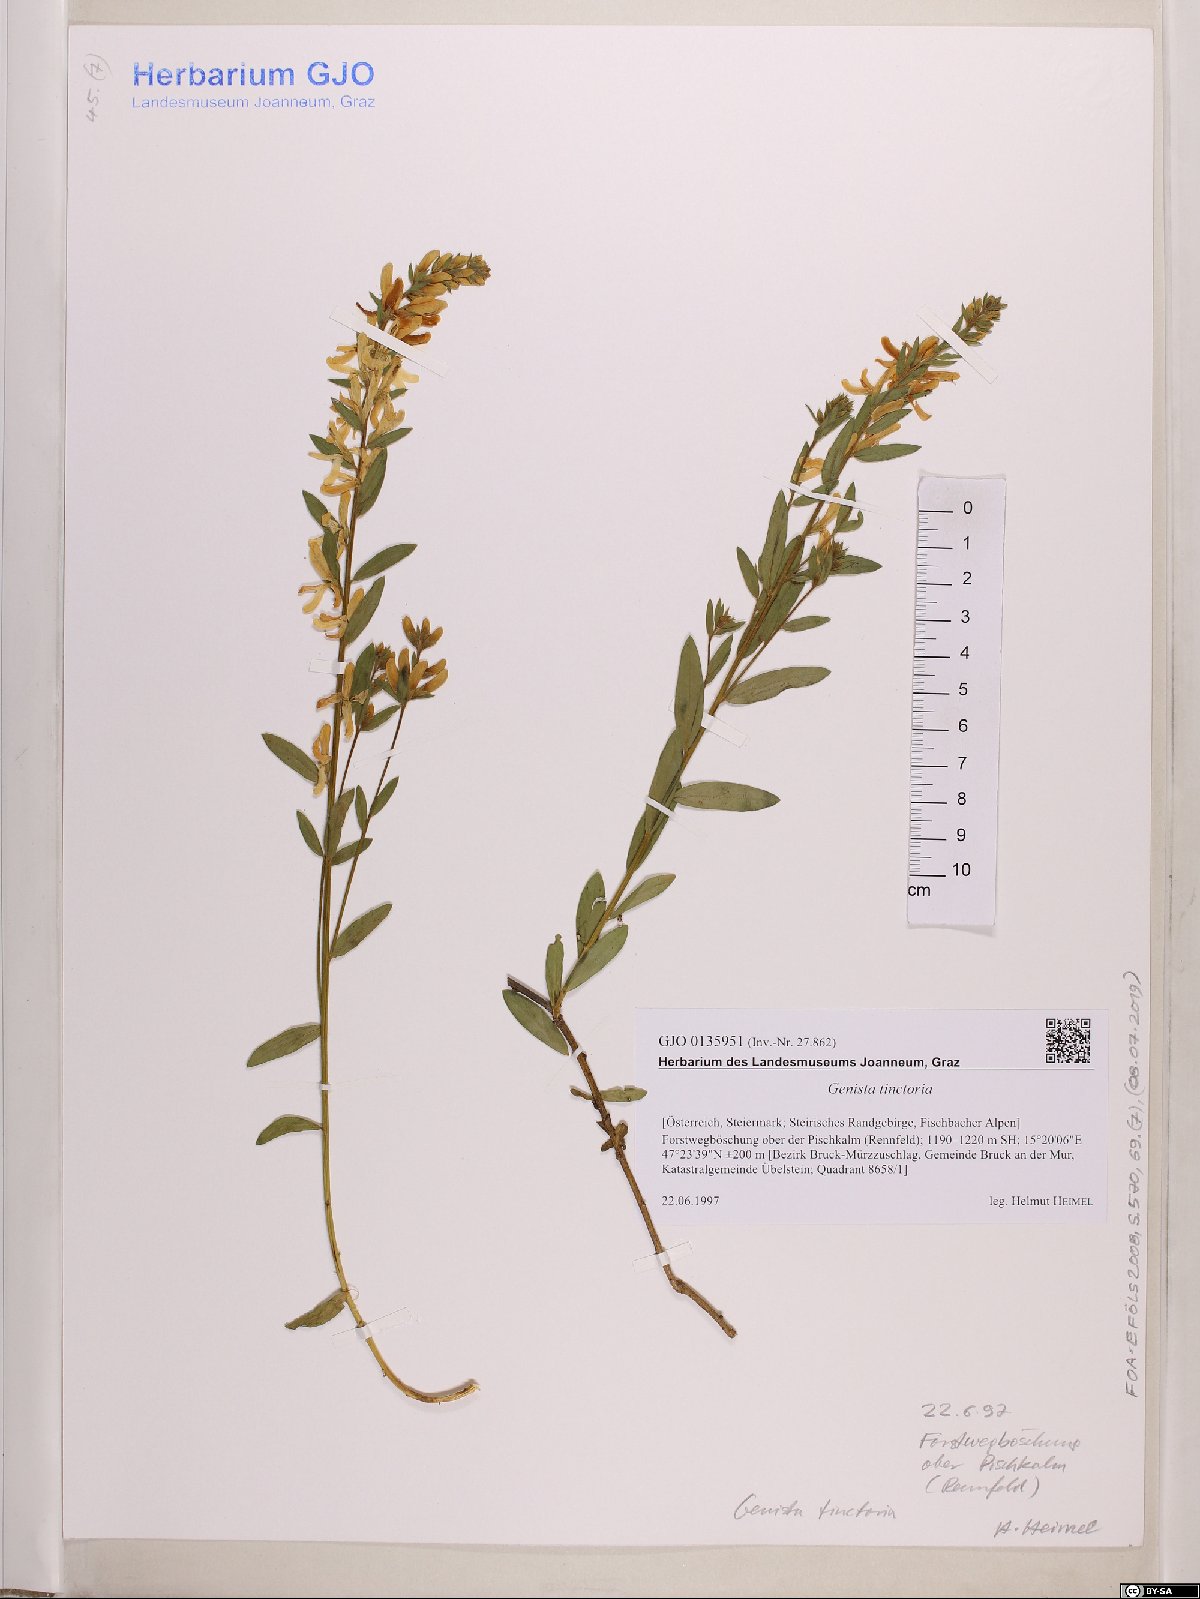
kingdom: Plantae
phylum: Tracheophyta
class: Magnoliopsida
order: Fabales
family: Fabaceae
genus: Genista
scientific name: Genista tinctoria
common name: Dyer's greenweed
